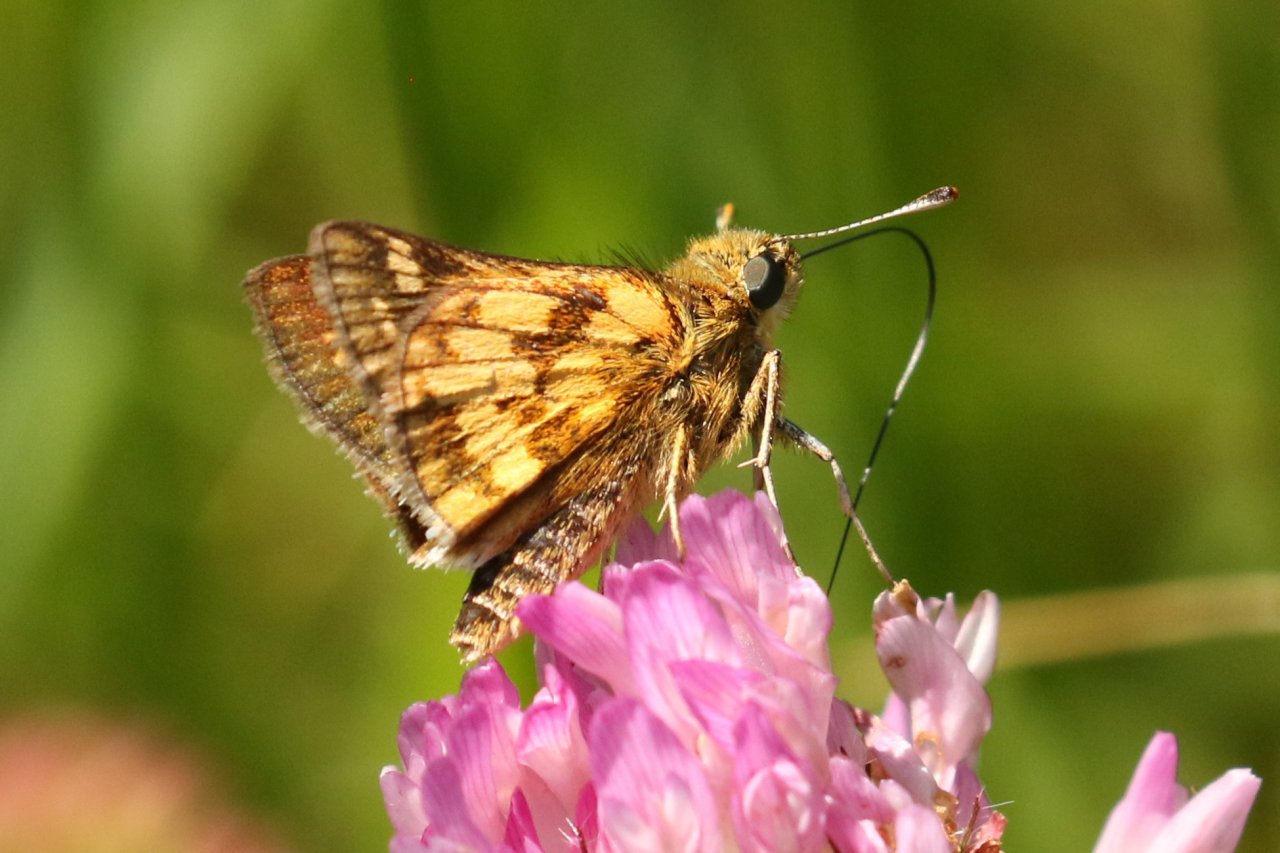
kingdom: Animalia
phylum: Arthropoda
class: Insecta
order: Lepidoptera
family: Hesperiidae
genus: Polites
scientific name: Polites coras
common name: Peck's Skipper
